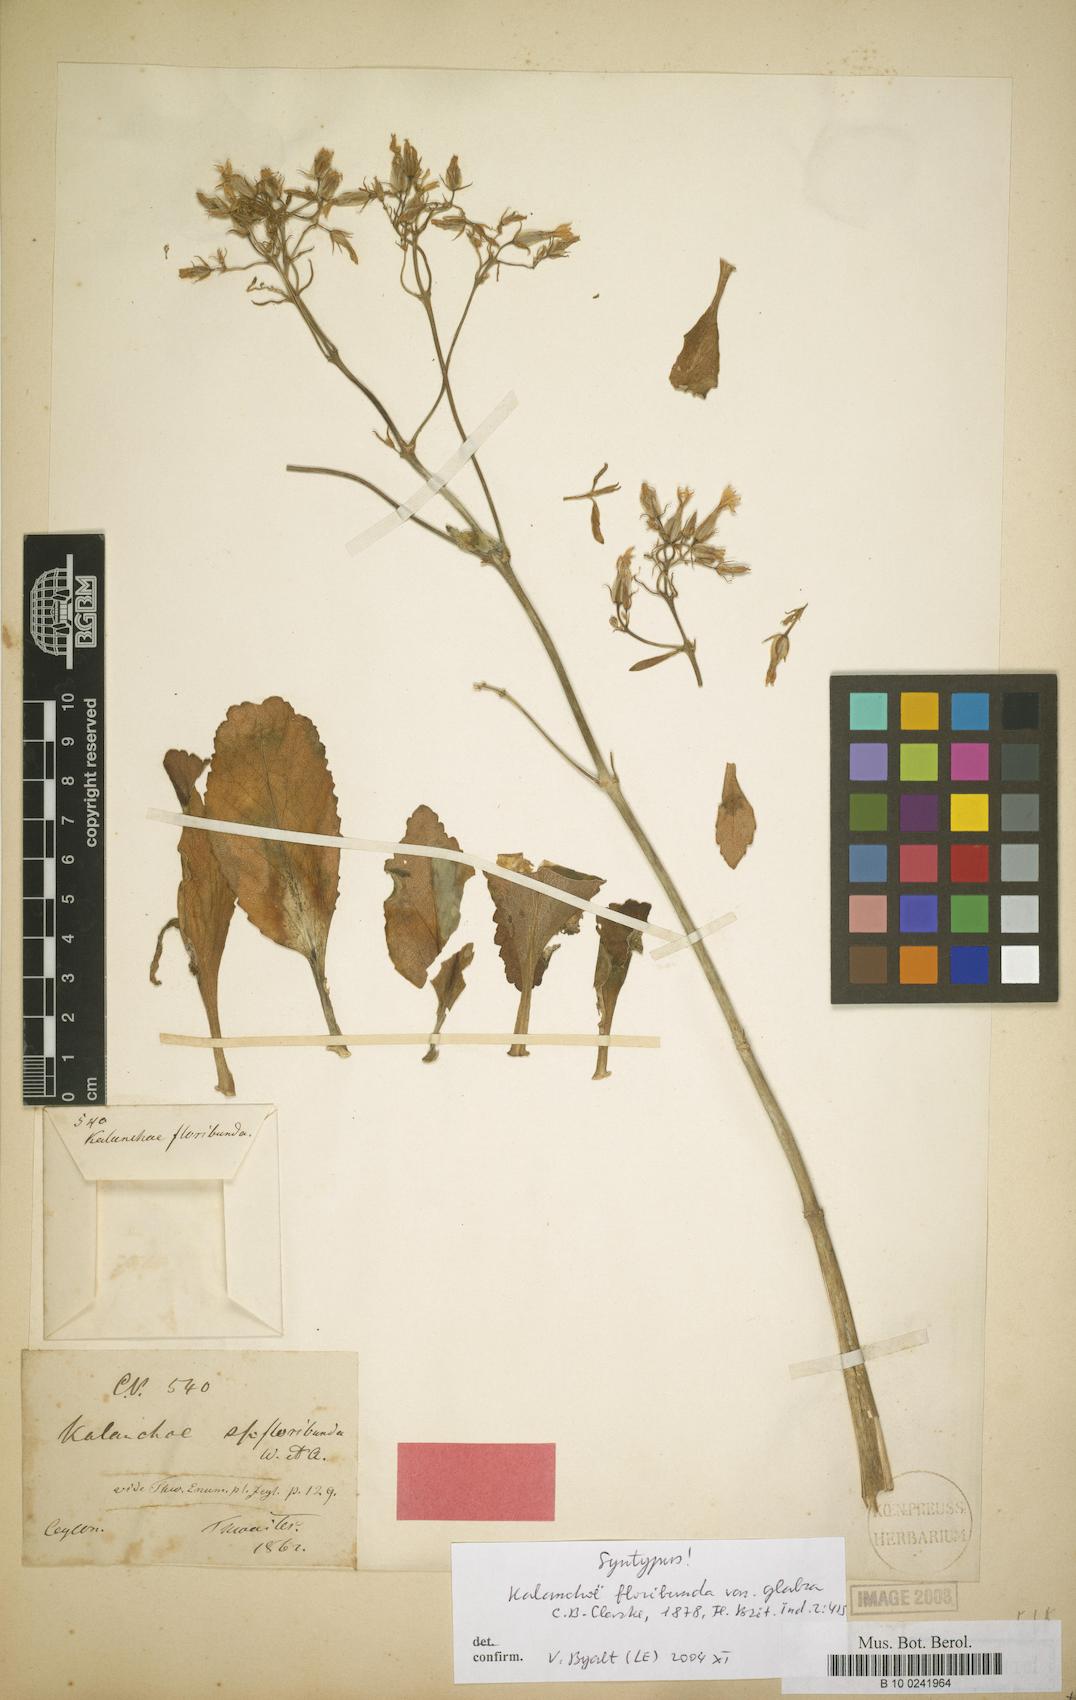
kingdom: Plantae
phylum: Tracheophyta
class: Magnoliopsida
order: Saxifragales
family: Crassulaceae
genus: Kalanchoe
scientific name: Kalanchoe floribunda
